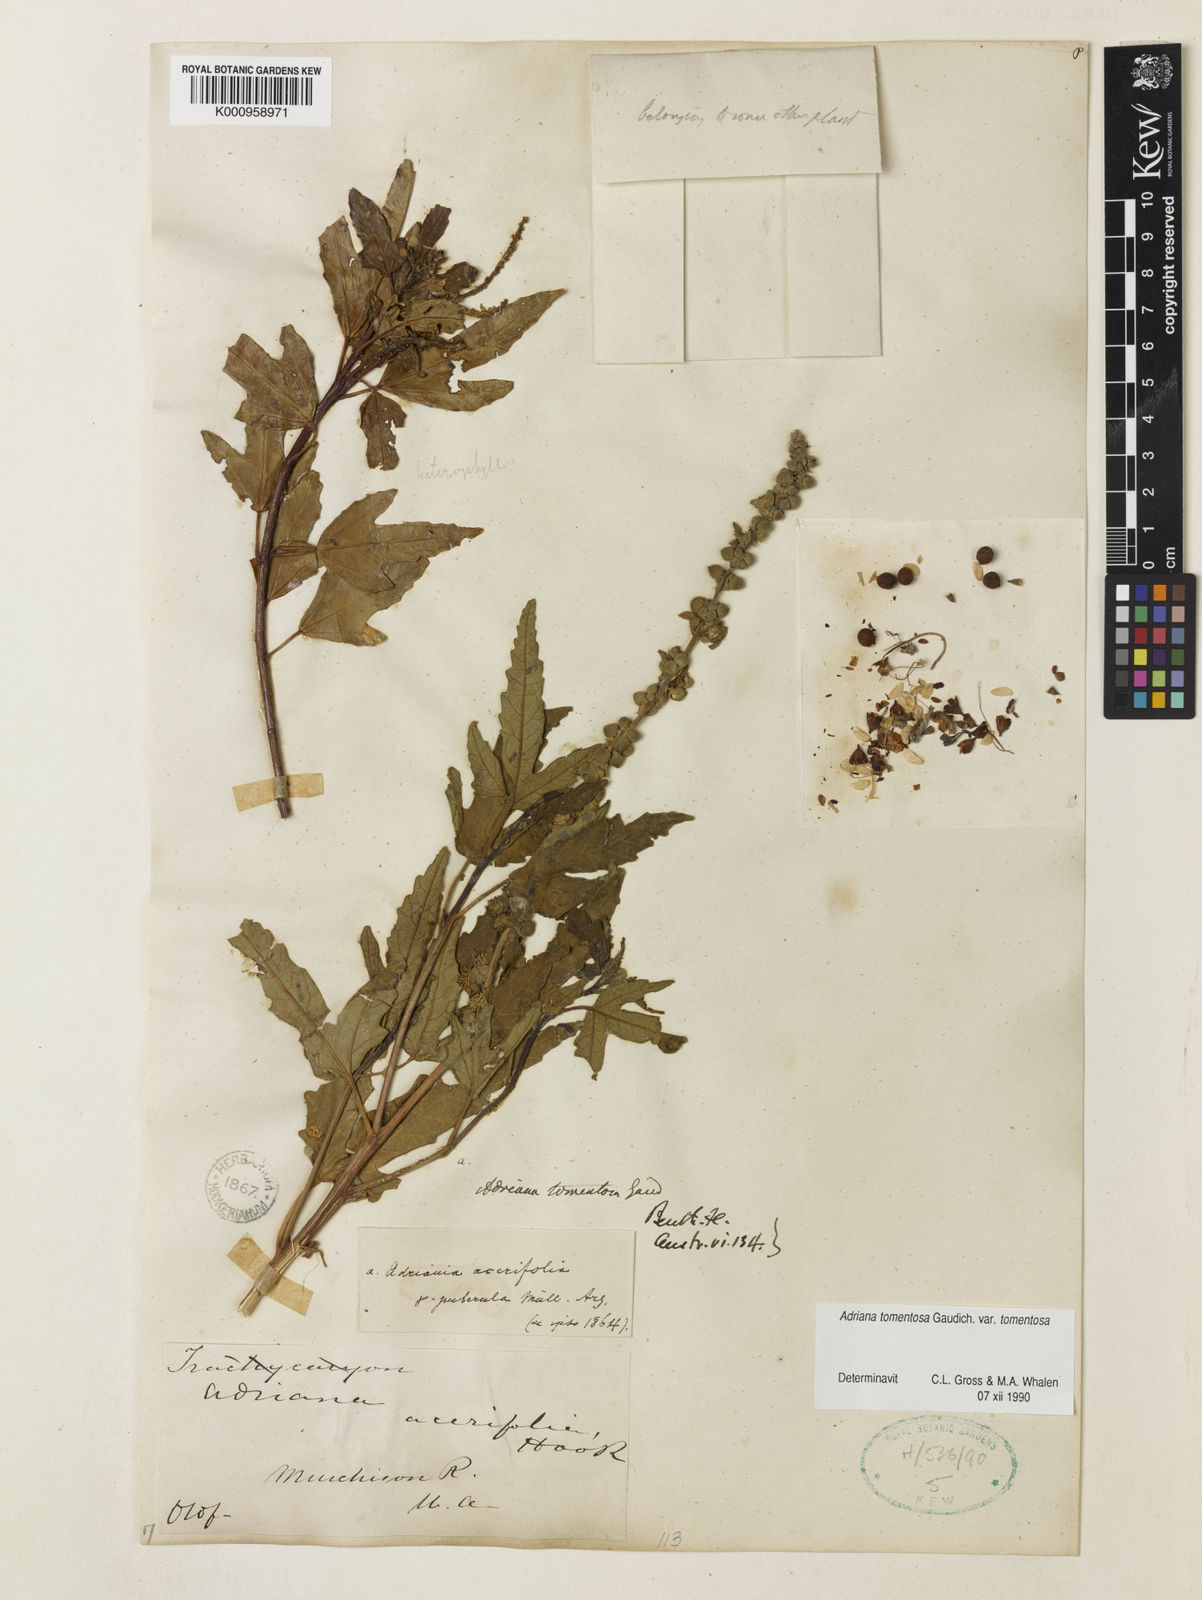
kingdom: Plantae
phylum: Tracheophyta
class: Magnoliopsida
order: Malpighiales
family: Euphorbiaceae
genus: Adriana
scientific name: Adriana tomentosa
